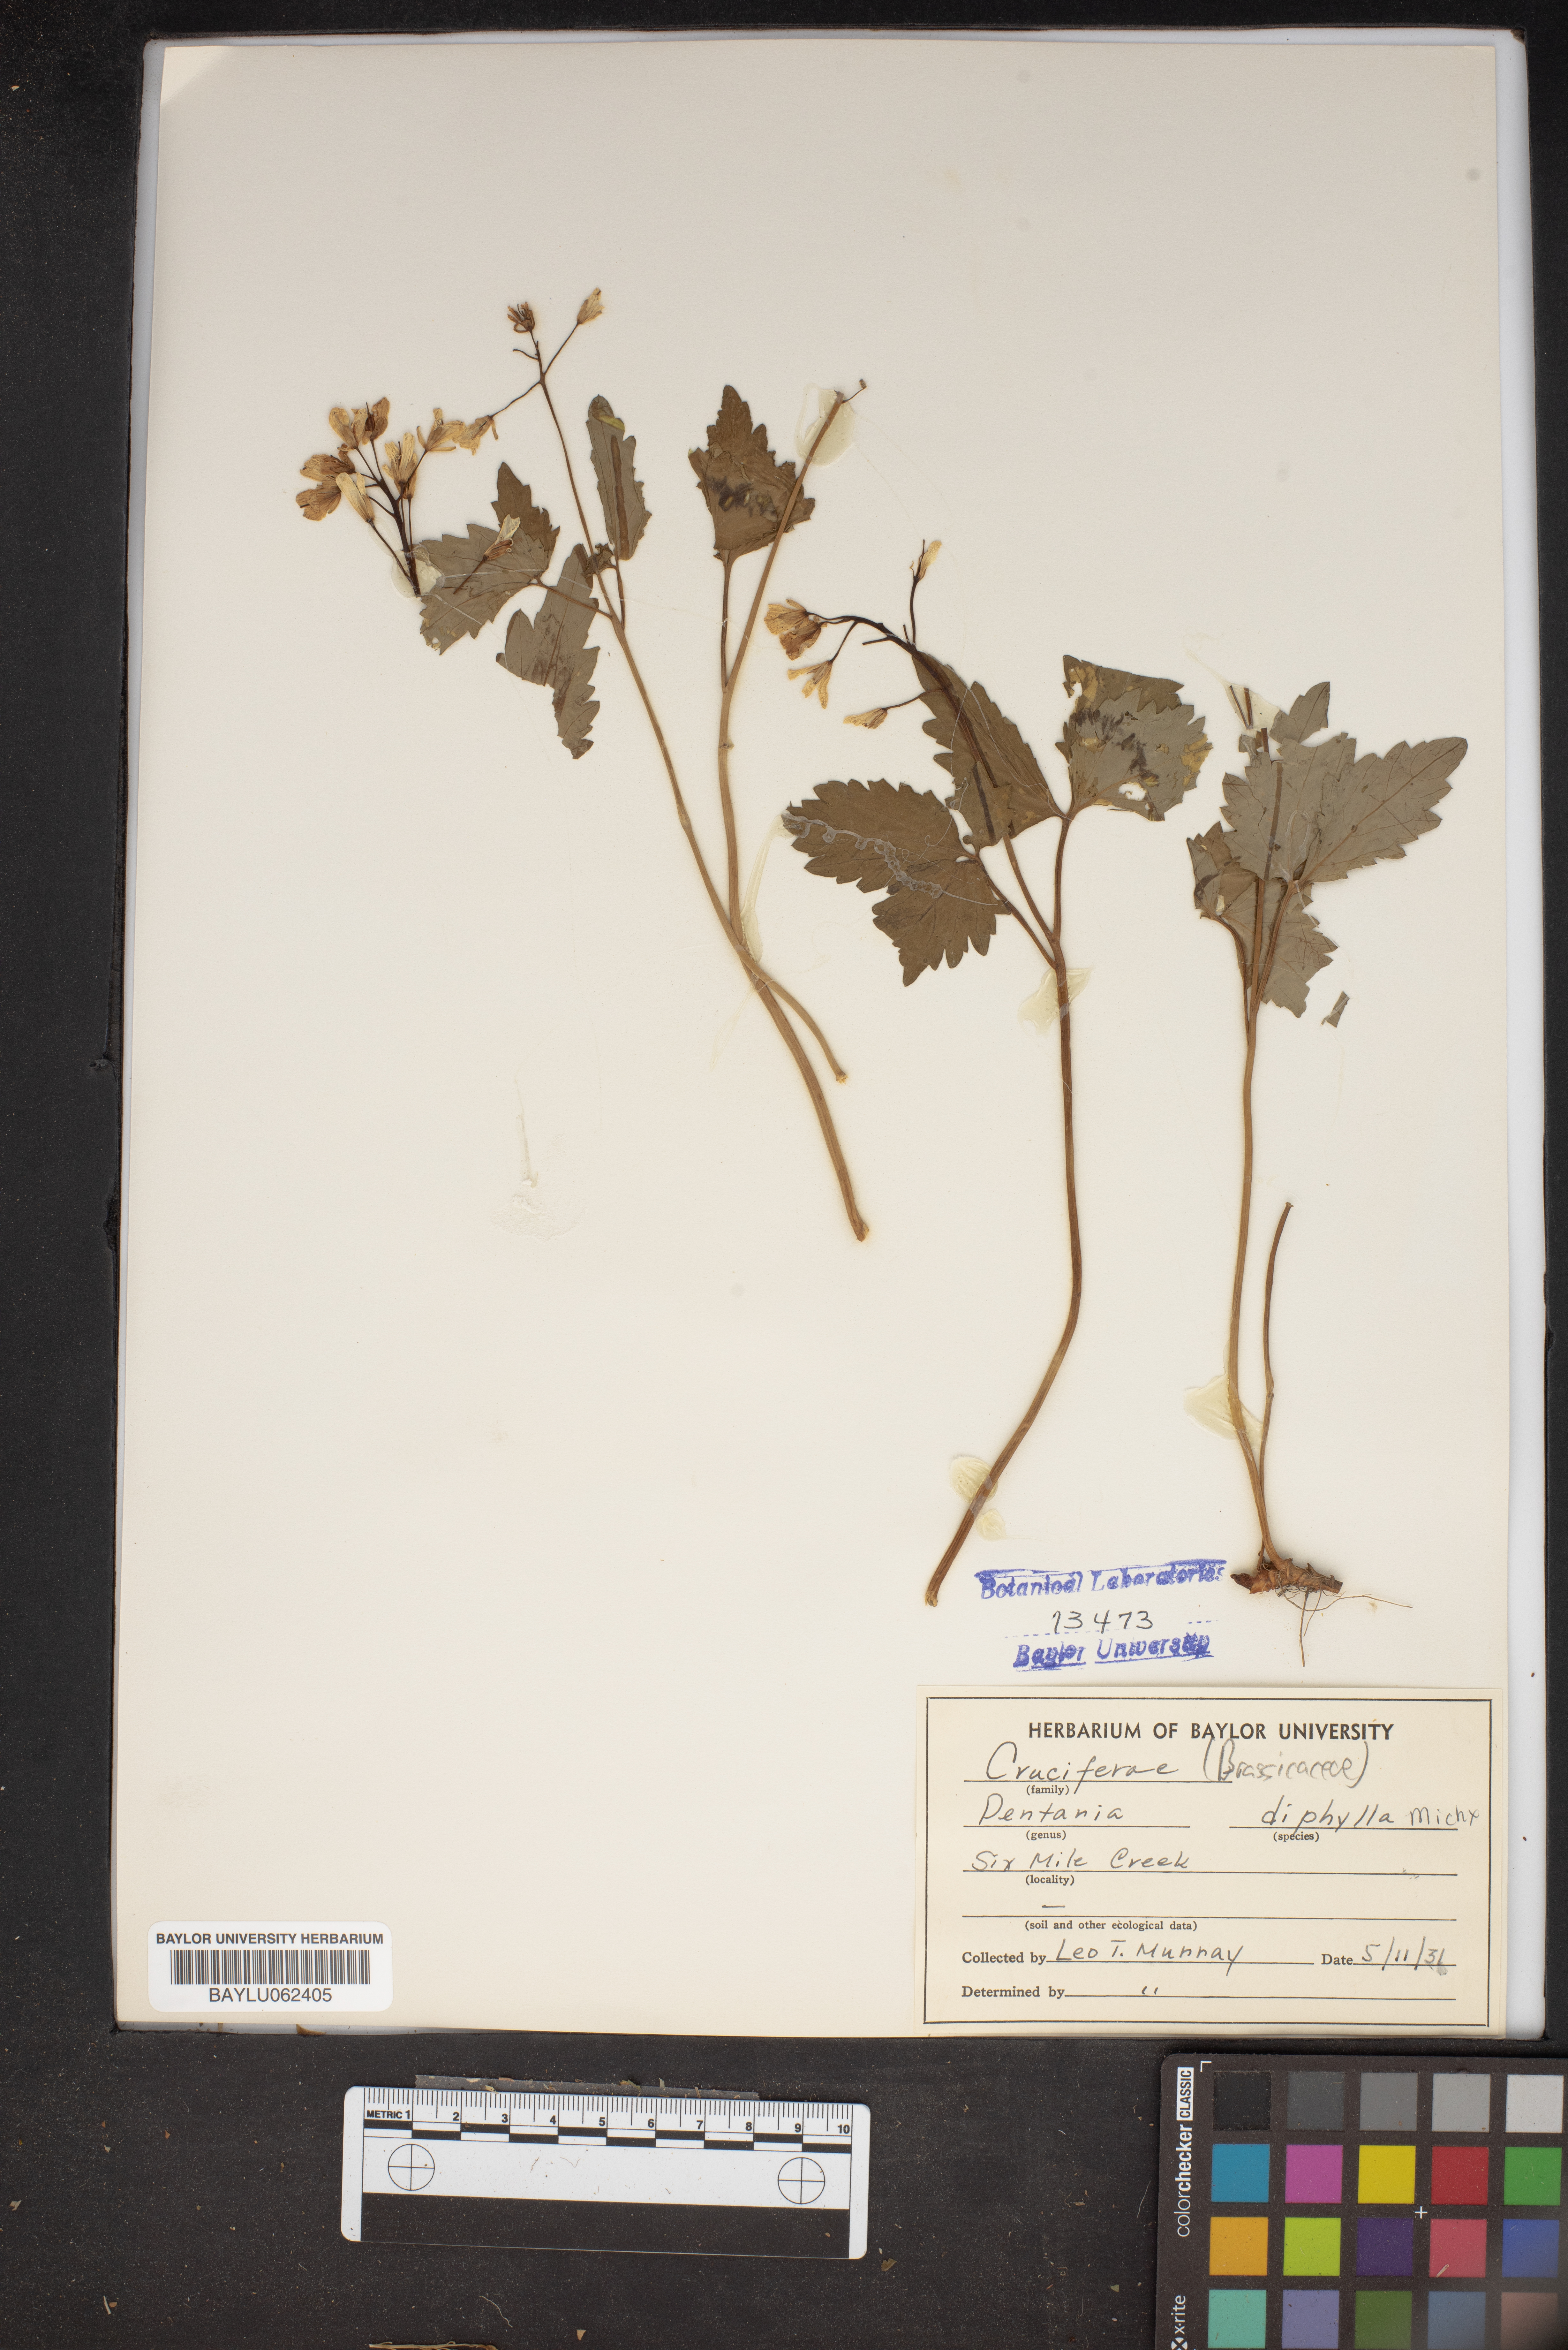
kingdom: Plantae
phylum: Tracheophyta
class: Magnoliopsida
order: Brassicales
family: Brassicaceae
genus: Cardamine
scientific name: Cardamine diphylla
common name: Broad-leaved toothwort
